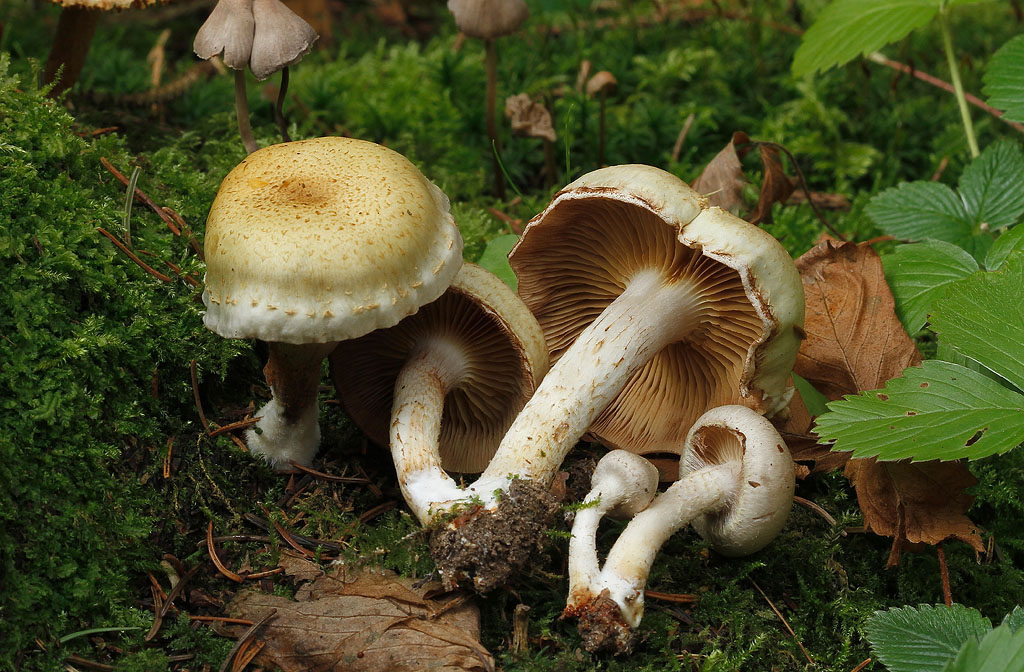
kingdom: Fungi
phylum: Basidiomycota
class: Agaricomycetes
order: Agaricales
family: Strophariaceae
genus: Pholiota
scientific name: Pholiota gummosa
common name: grøngul skælhat
